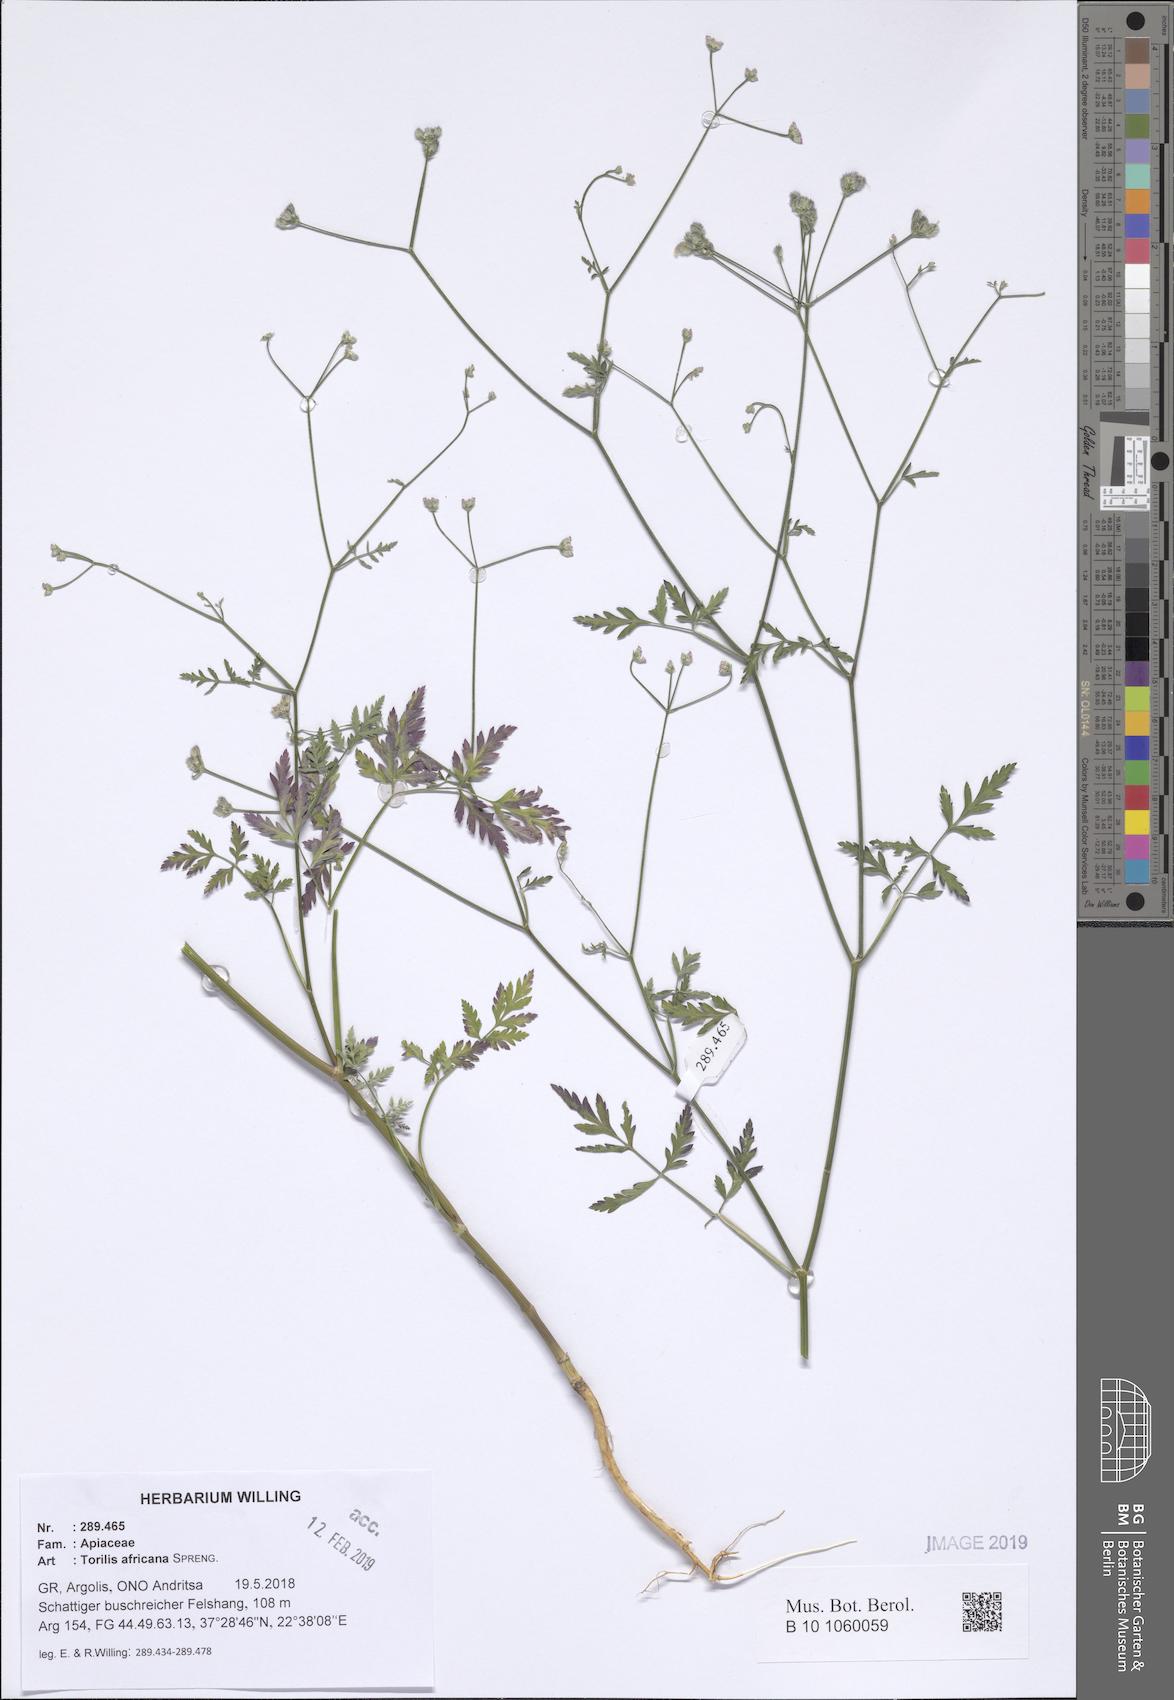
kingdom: Plantae
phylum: Tracheophyta
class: Magnoliopsida
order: Apiales
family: Apiaceae
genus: Torilis
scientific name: Torilis africana
